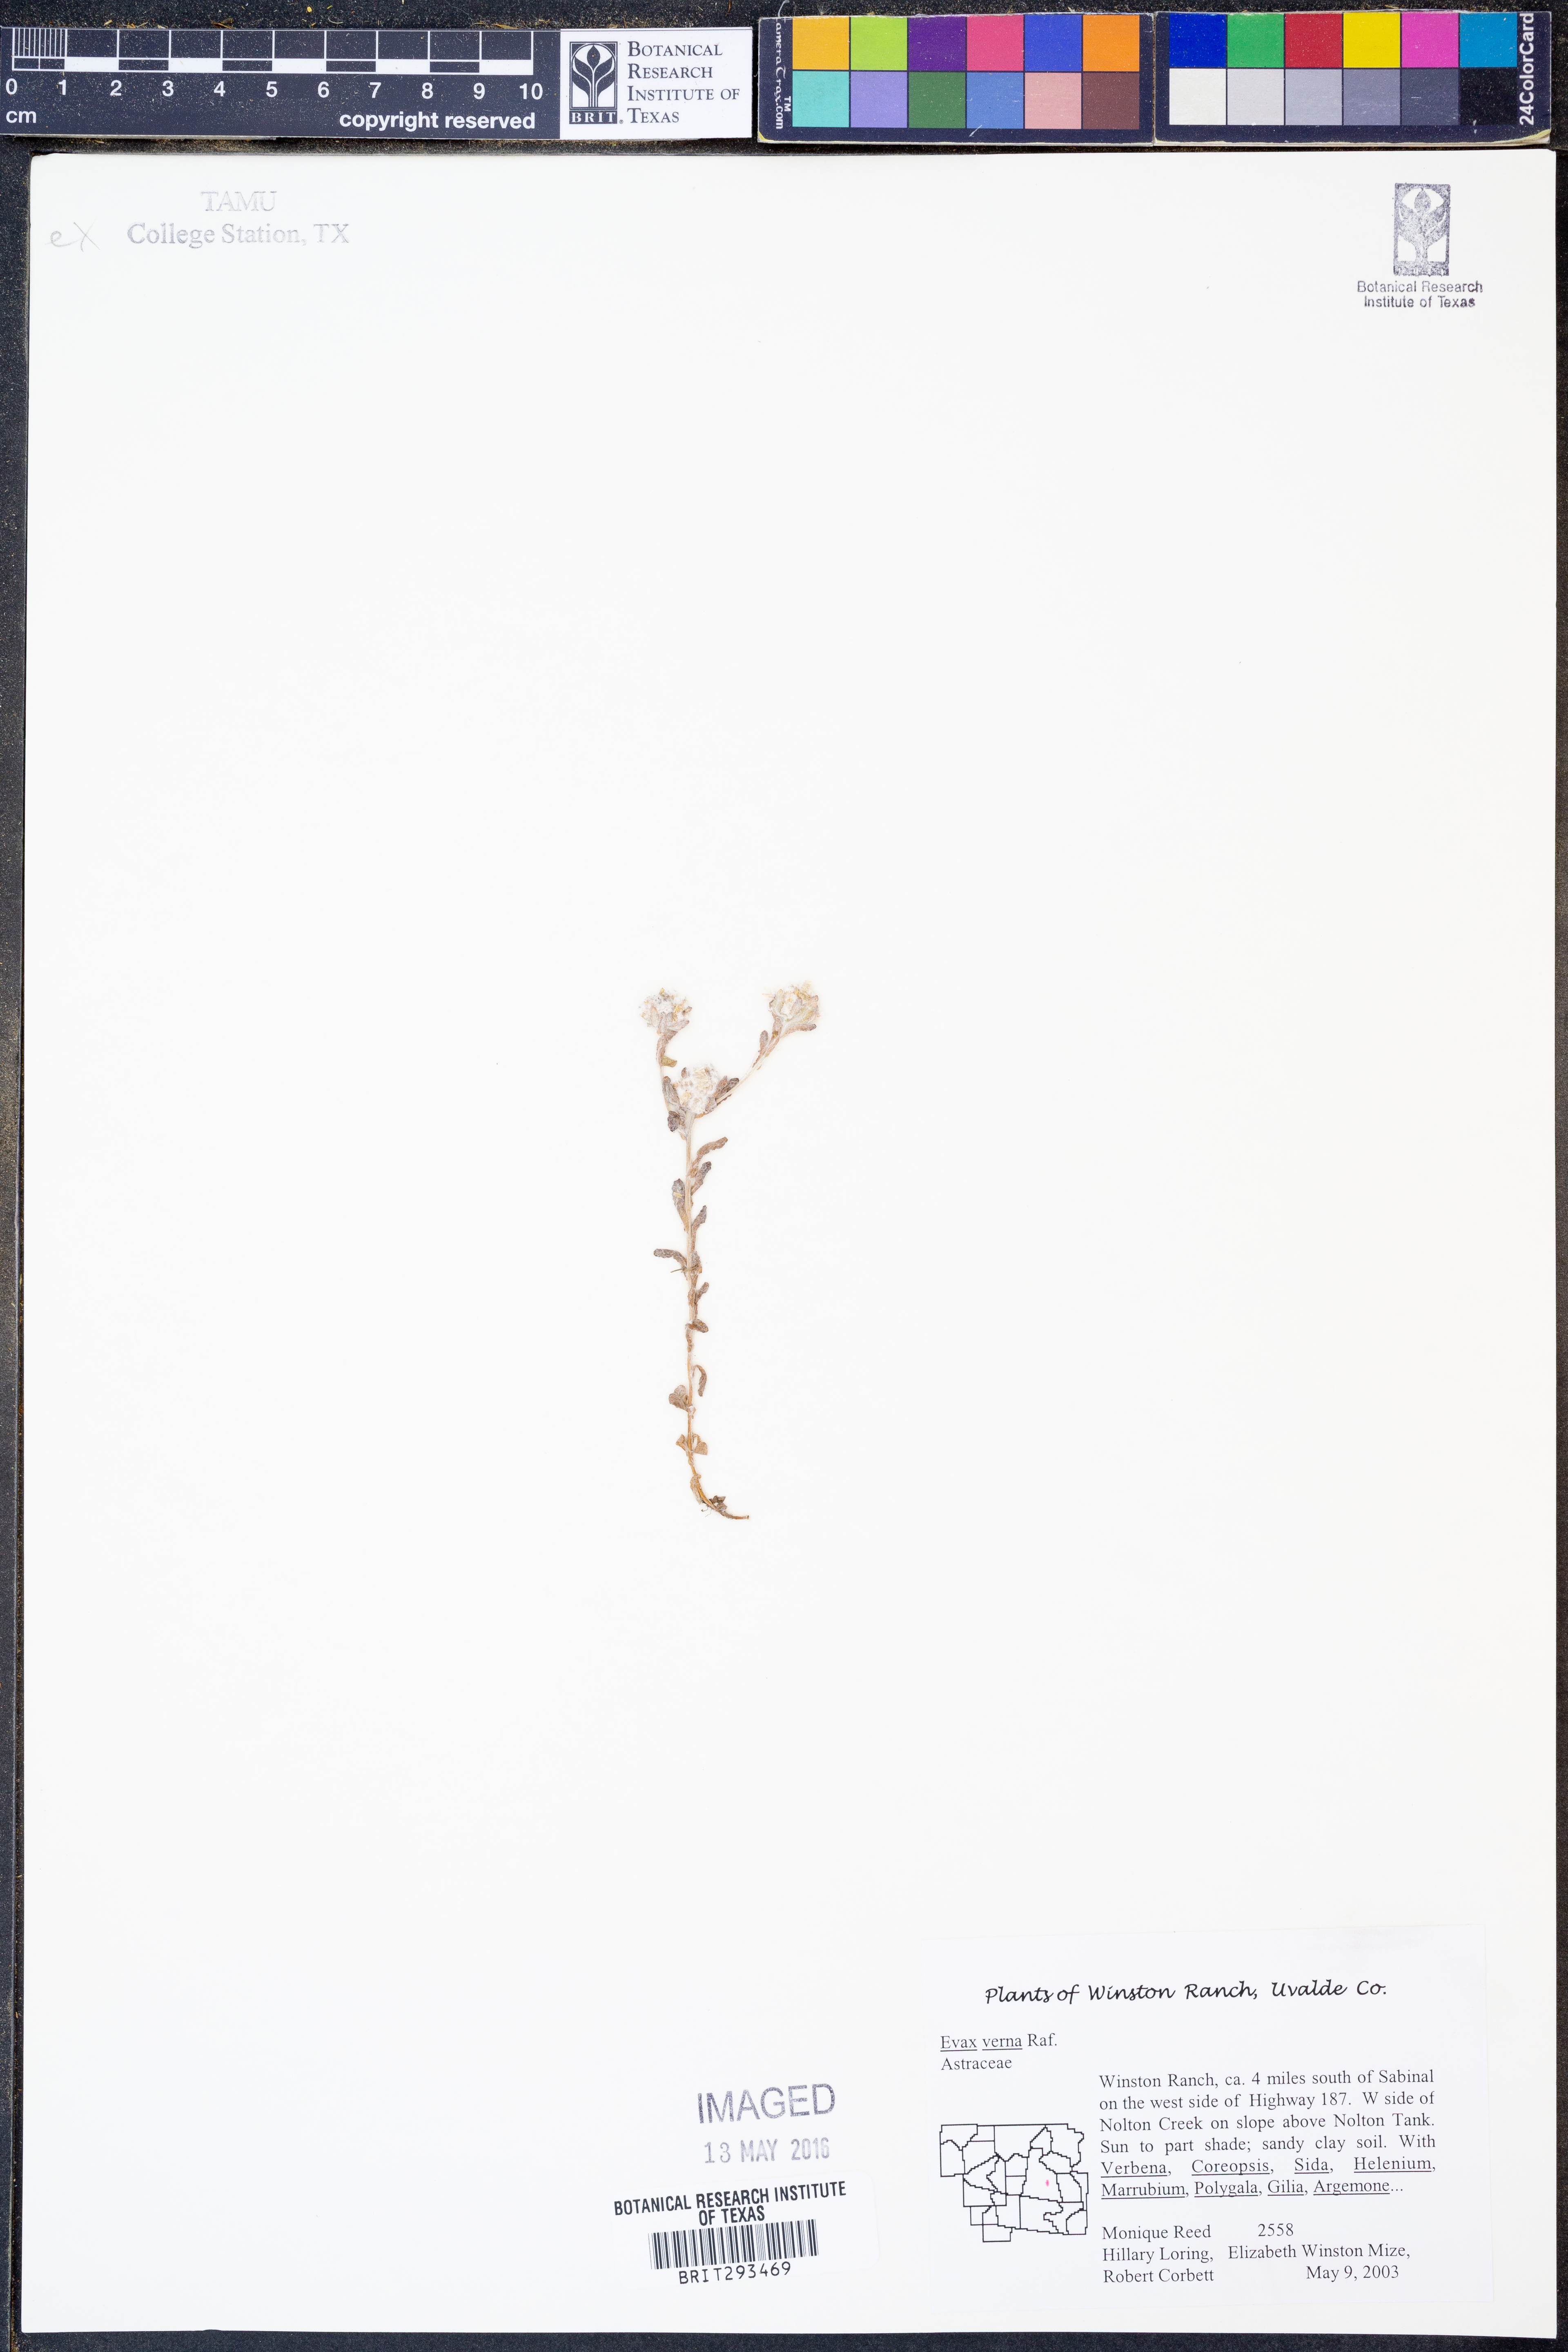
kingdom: Plantae
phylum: Tracheophyta
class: Magnoliopsida
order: Asterales
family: Asteraceae
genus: Diaperia
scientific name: Diaperia verna
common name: Many-stem rabbit-tobacco
